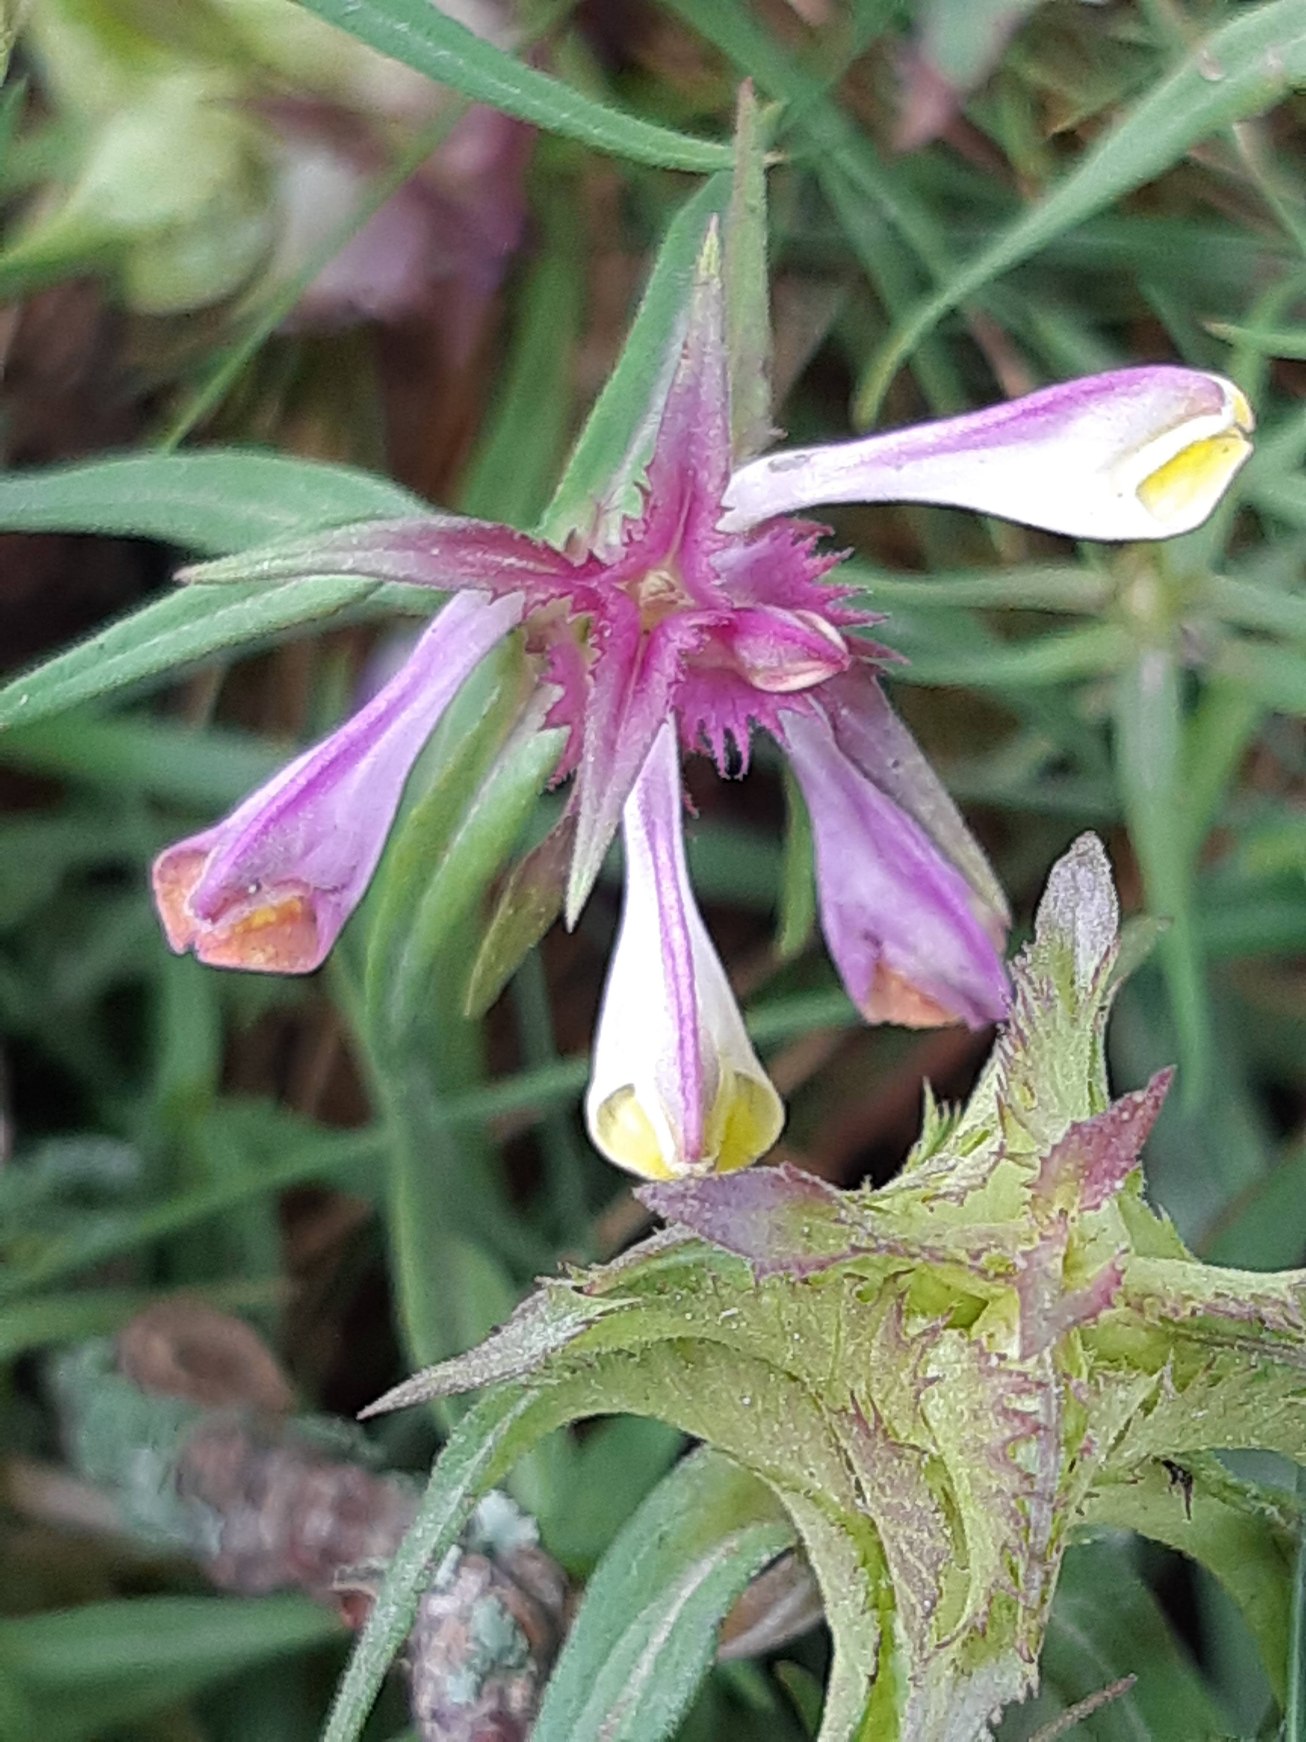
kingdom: Plantae
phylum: Tracheophyta
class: Magnoliopsida
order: Lamiales
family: Orobanchaceae
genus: Melampyrum
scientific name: Melampyrum cristatum
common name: Kantet kohvede
